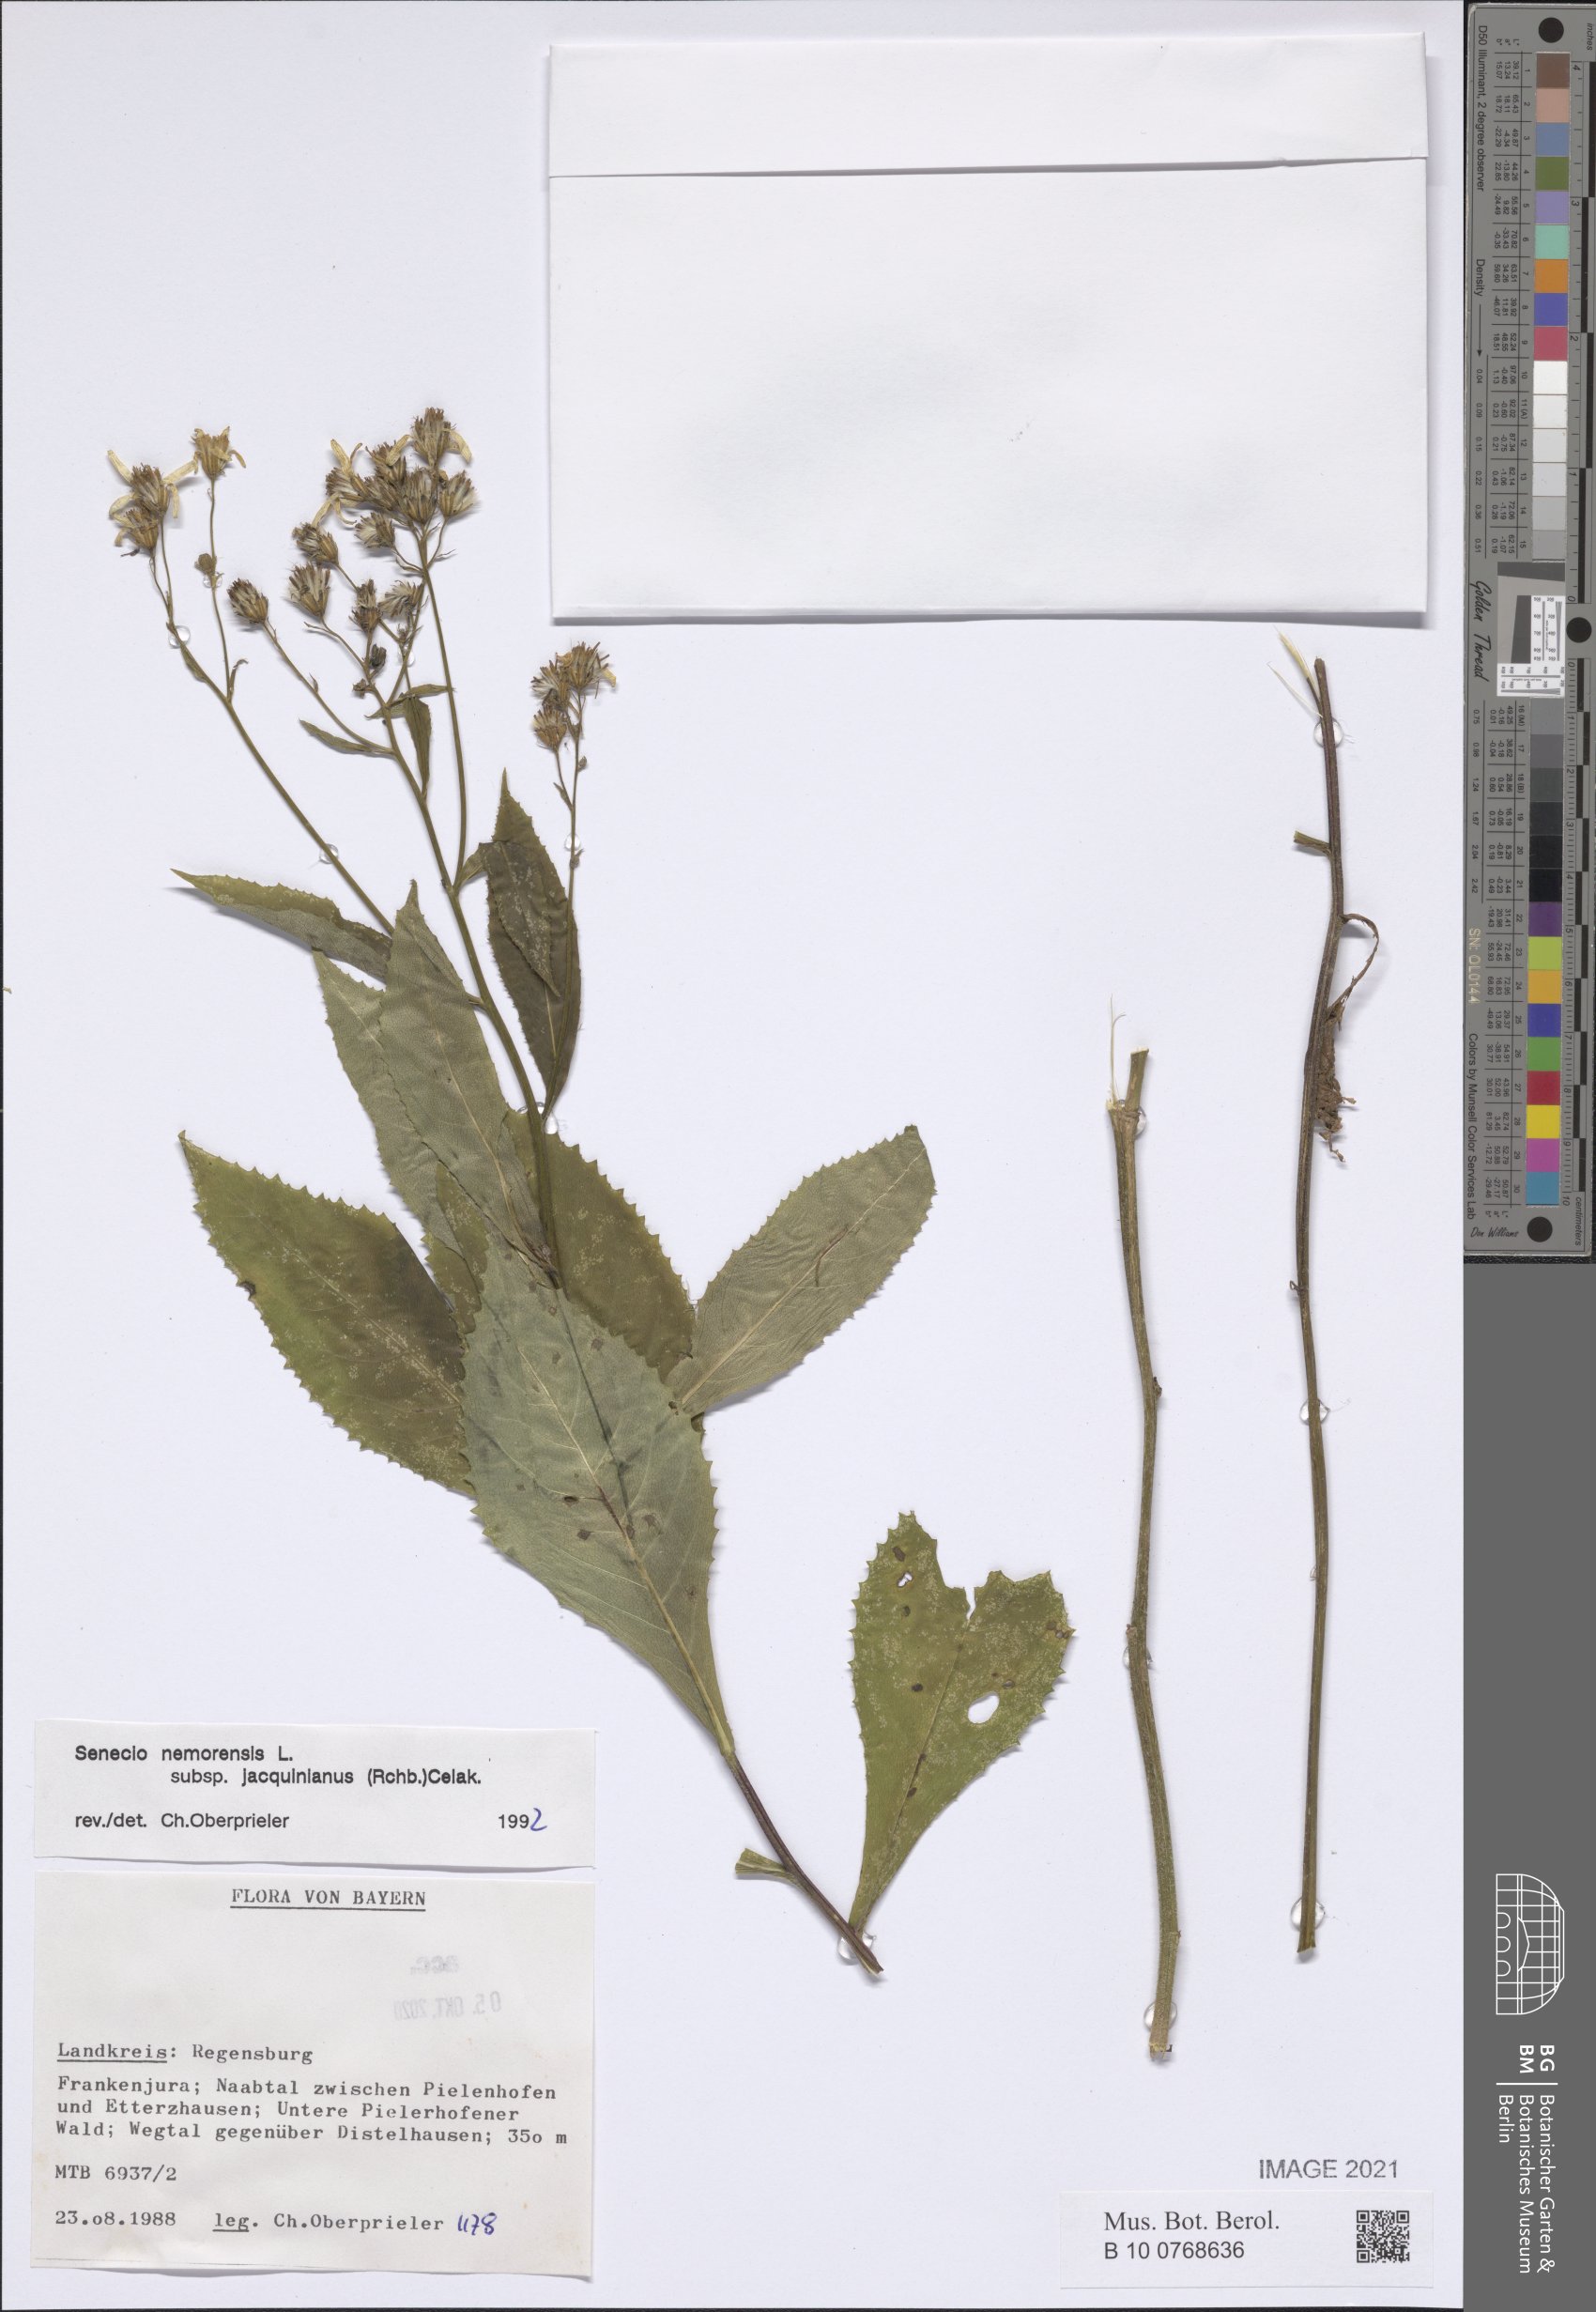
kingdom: Plantae
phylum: Tracheophyta
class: Magnoliopsida
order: Asterales
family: Asteraceae
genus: Senecio
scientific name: Senecio germanicus
